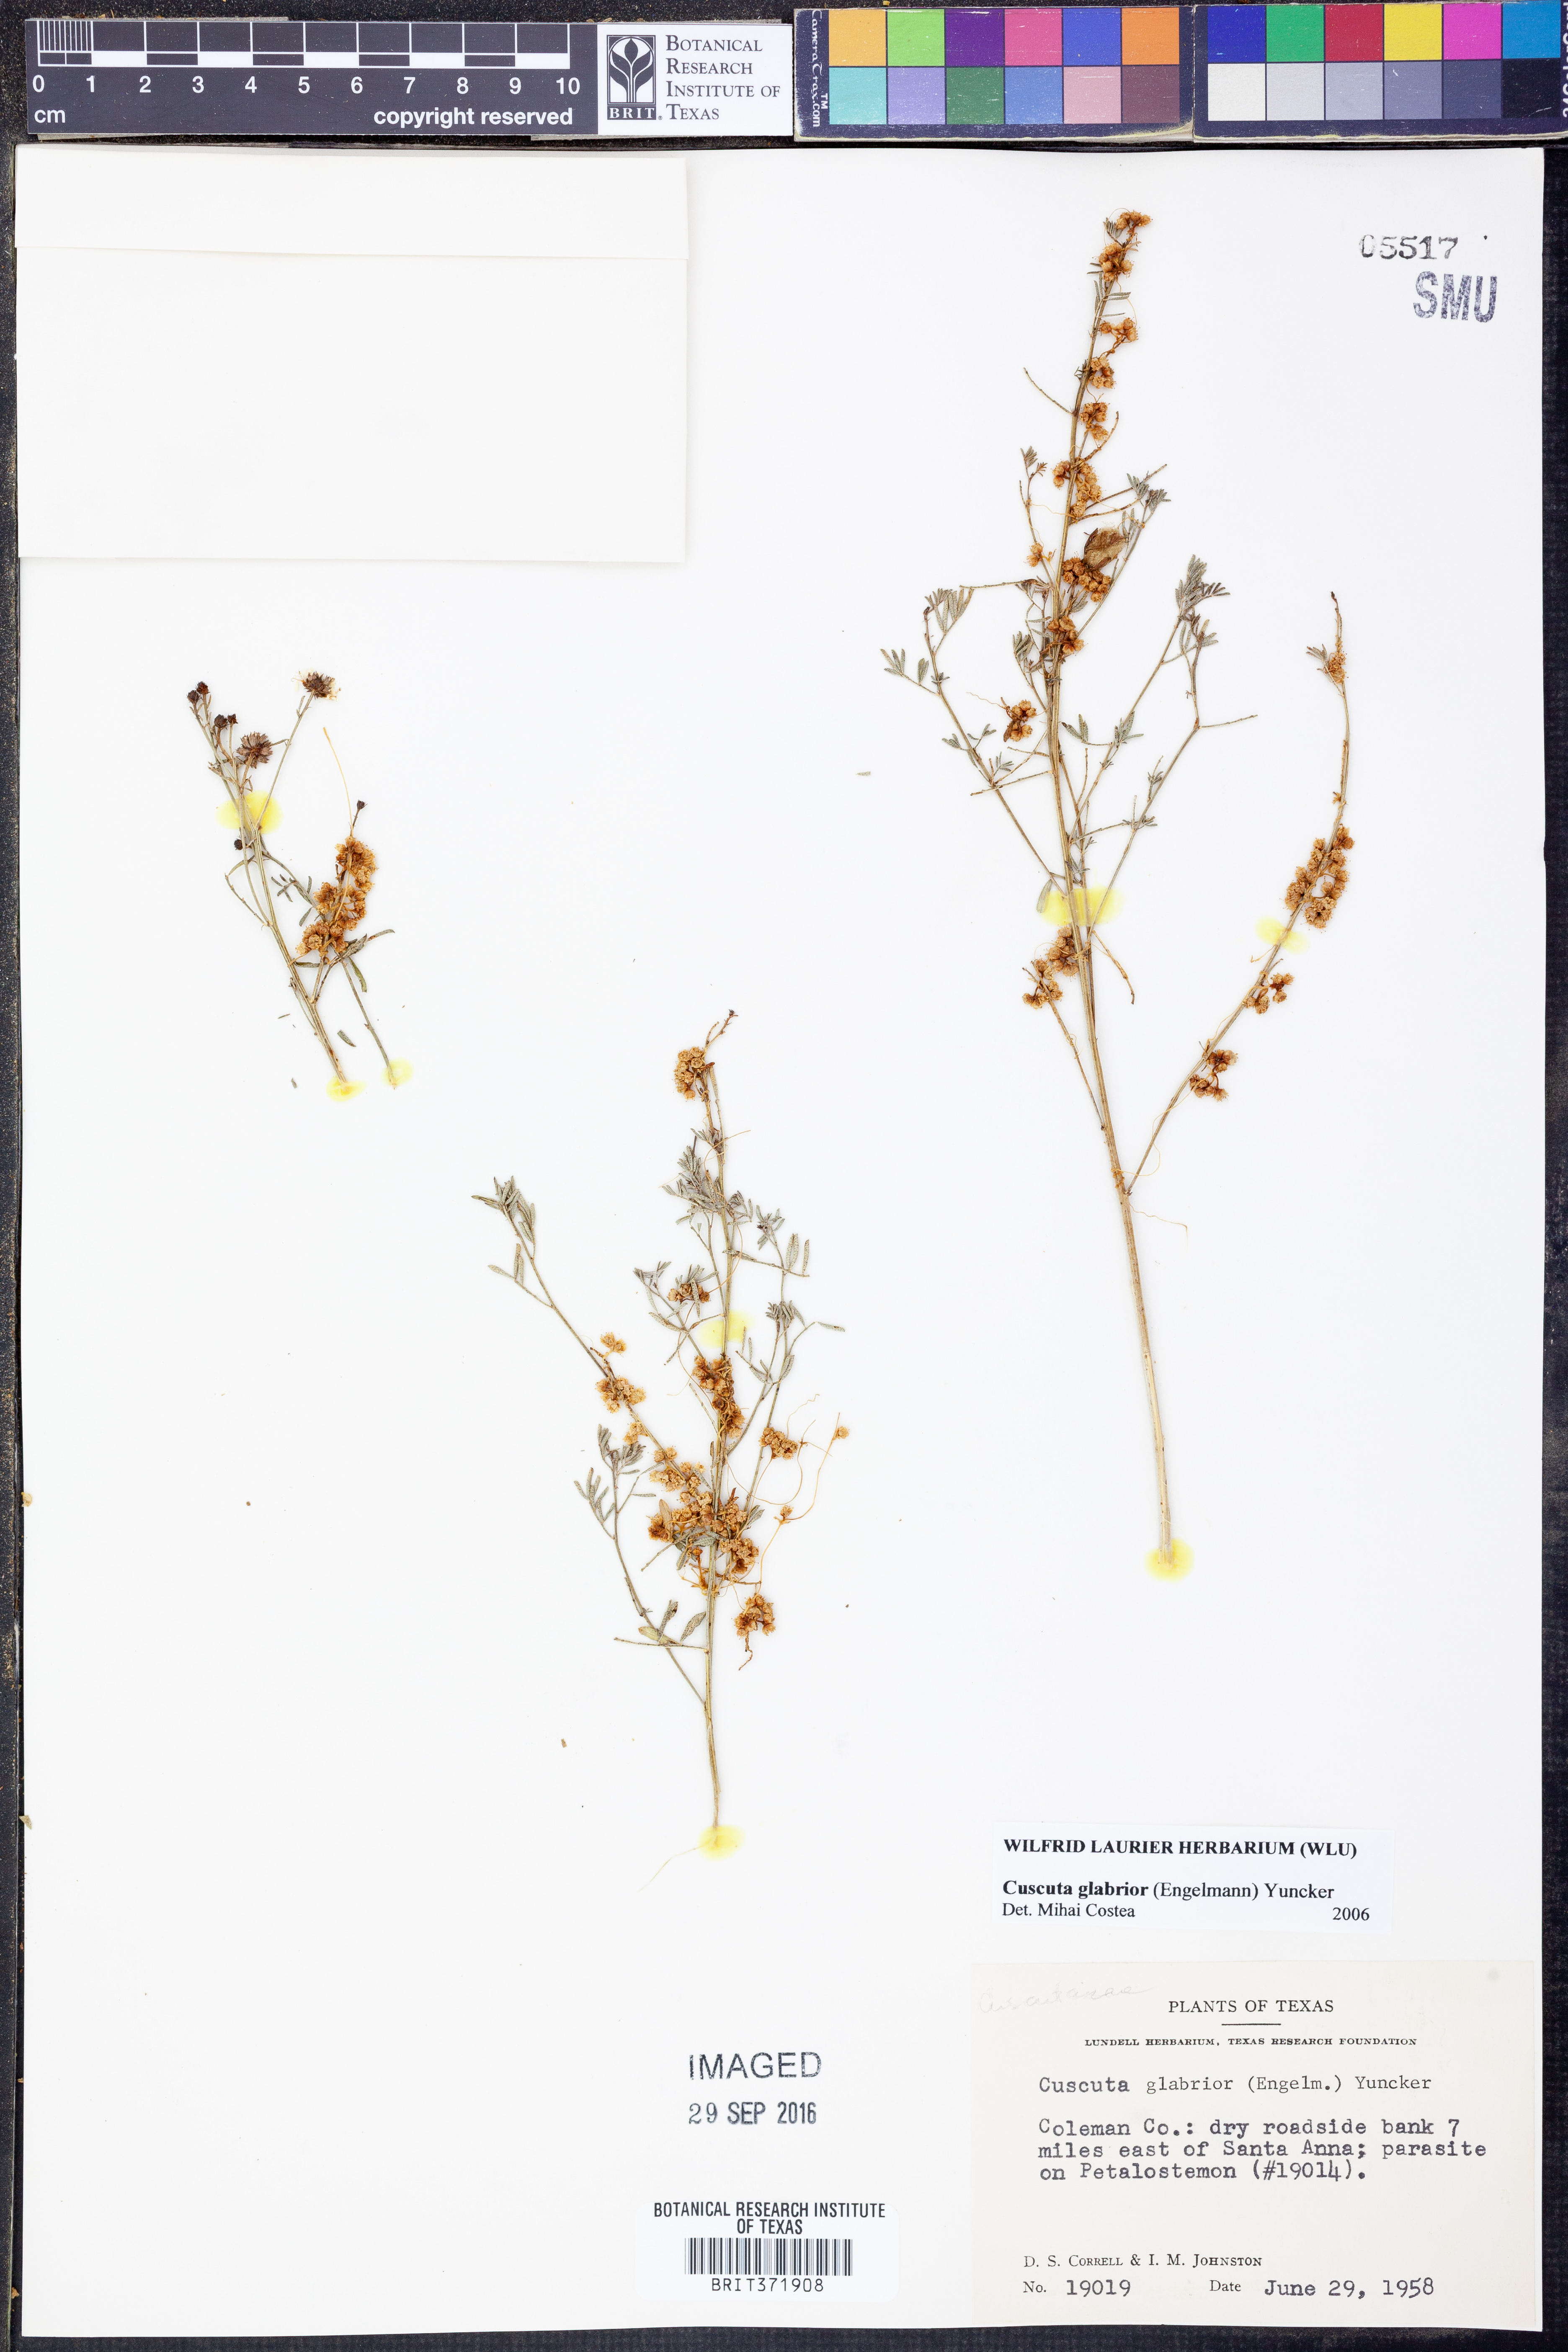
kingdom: Plantae
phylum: Tracheophyta
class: Magnoliopsida
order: Solanales
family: Convolvulaceae
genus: Cuscuta
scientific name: Cuscuta glabrior
